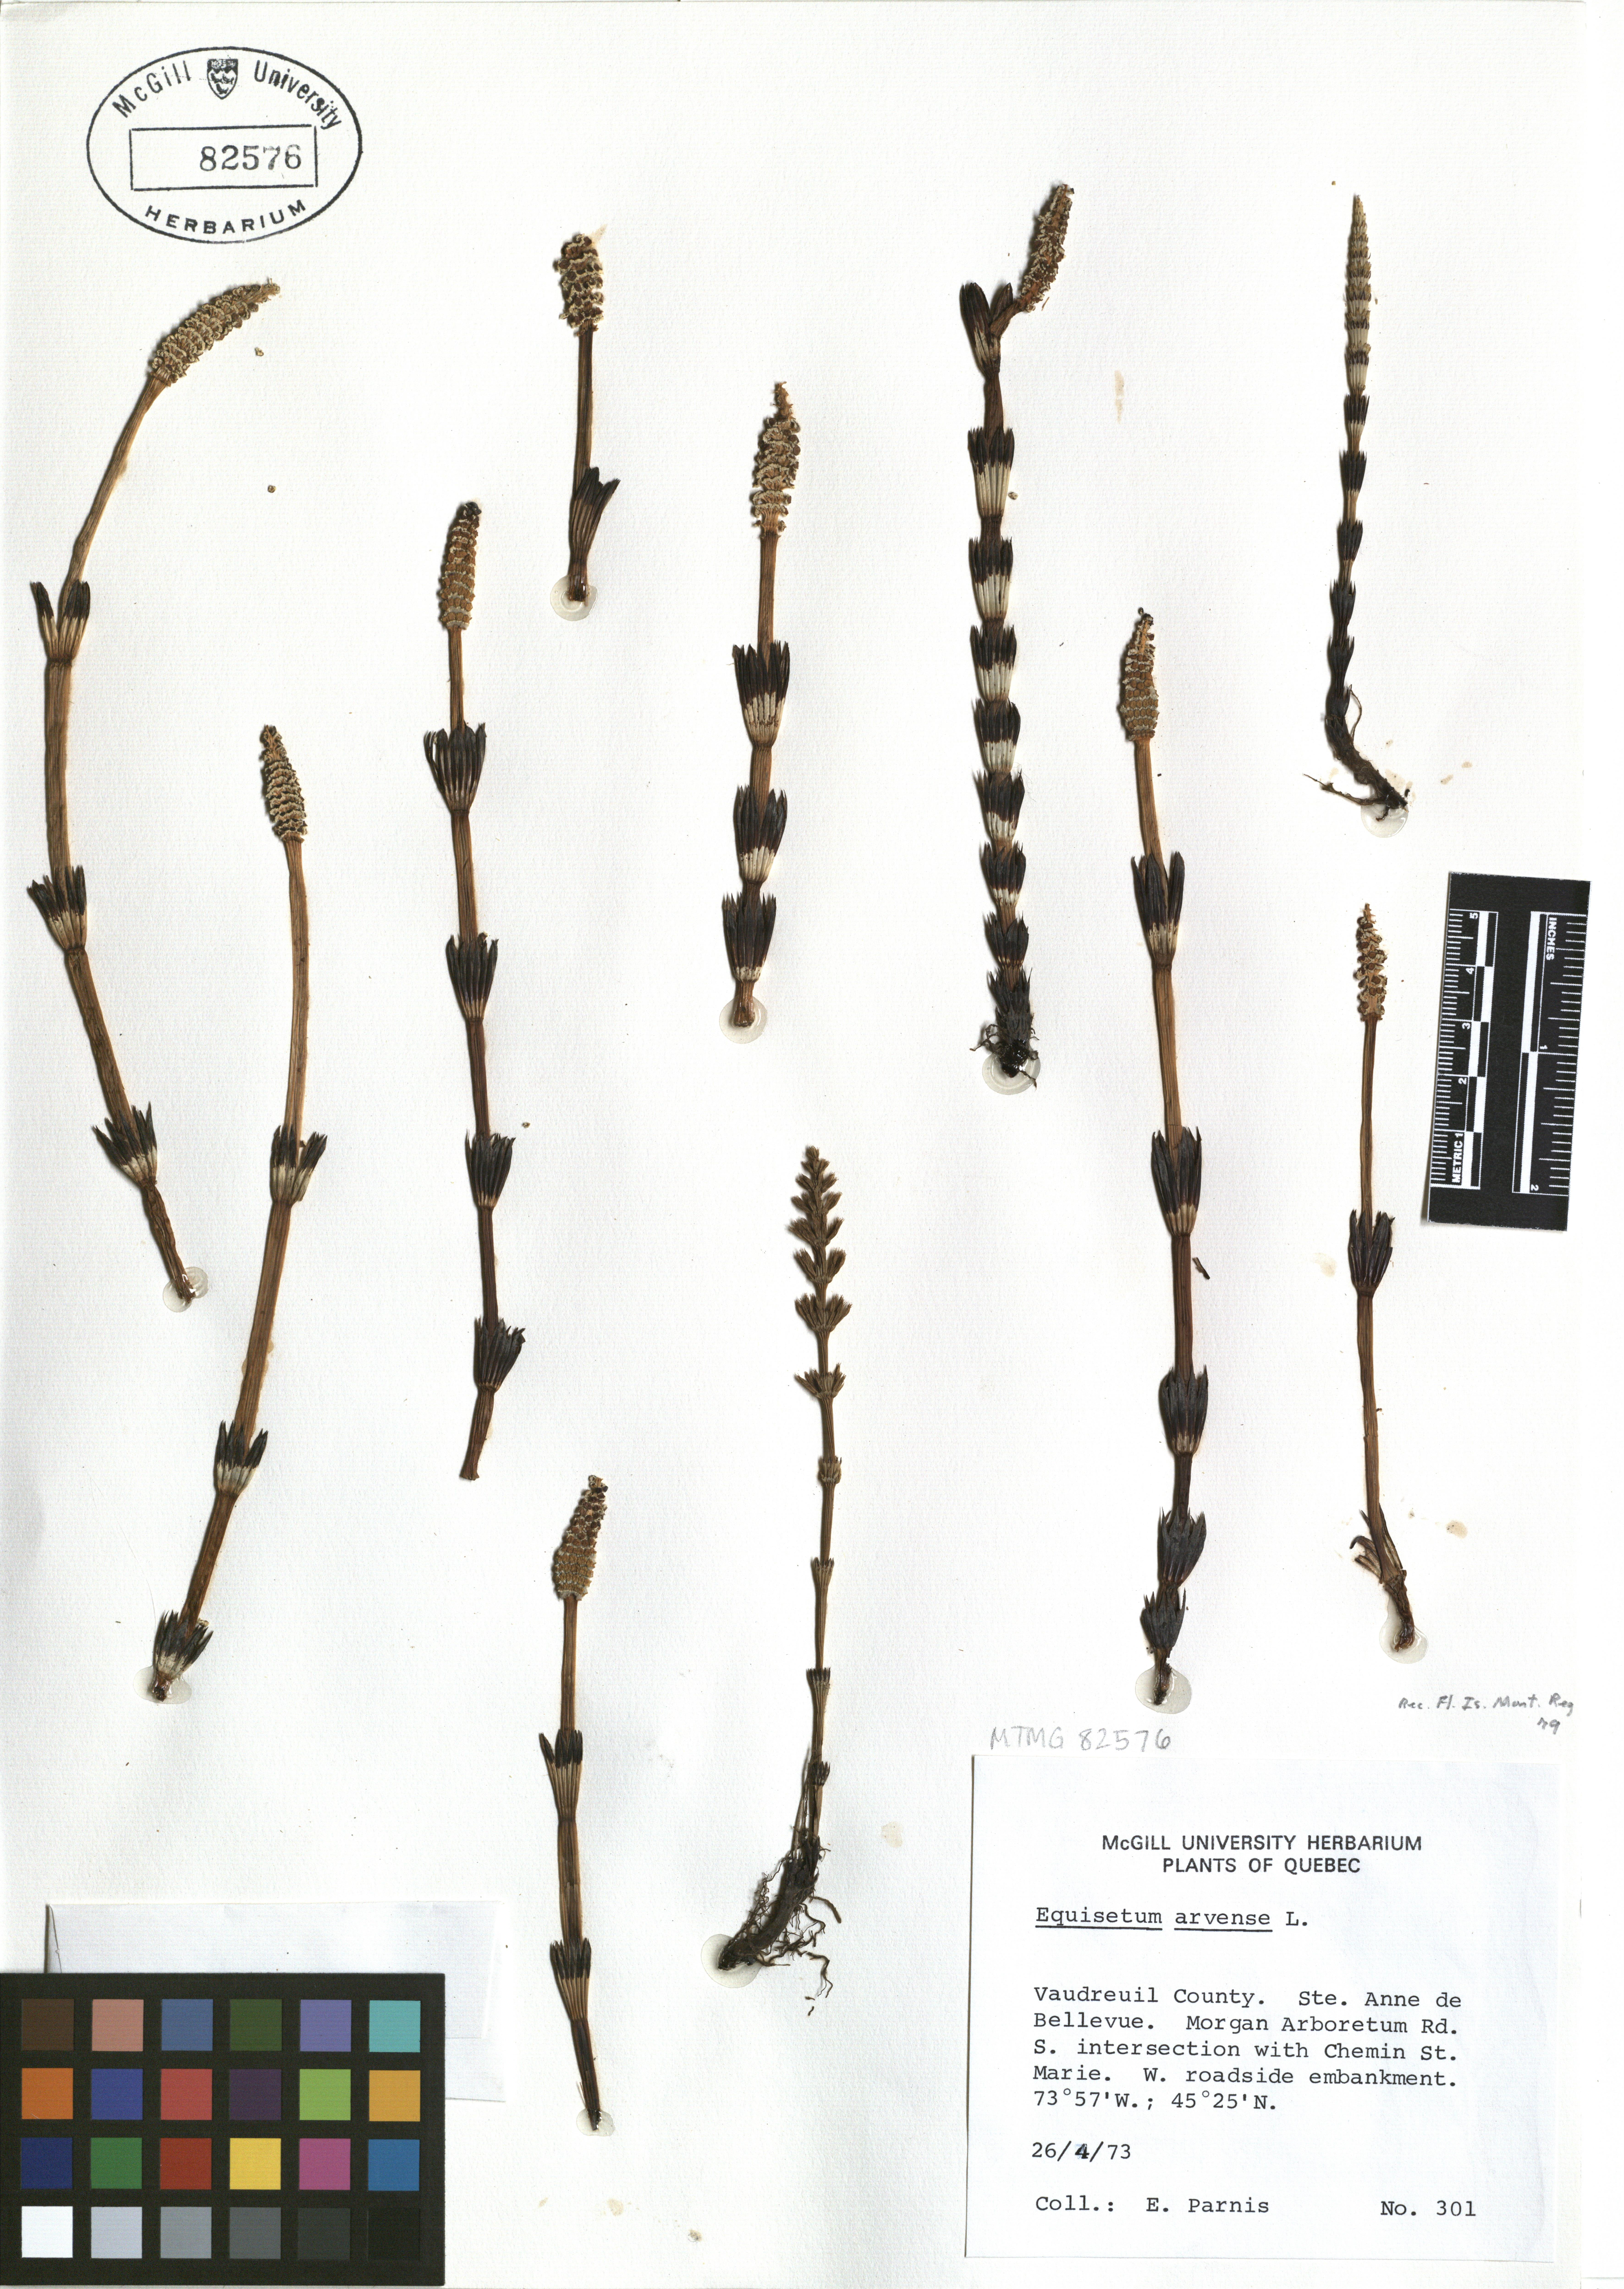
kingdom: Plantae
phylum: Tracheophyta
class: Polypodiopsida
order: Equisetales
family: Equisetaceae
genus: Equisetum
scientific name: Equisetum arvense
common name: Field horsetail
